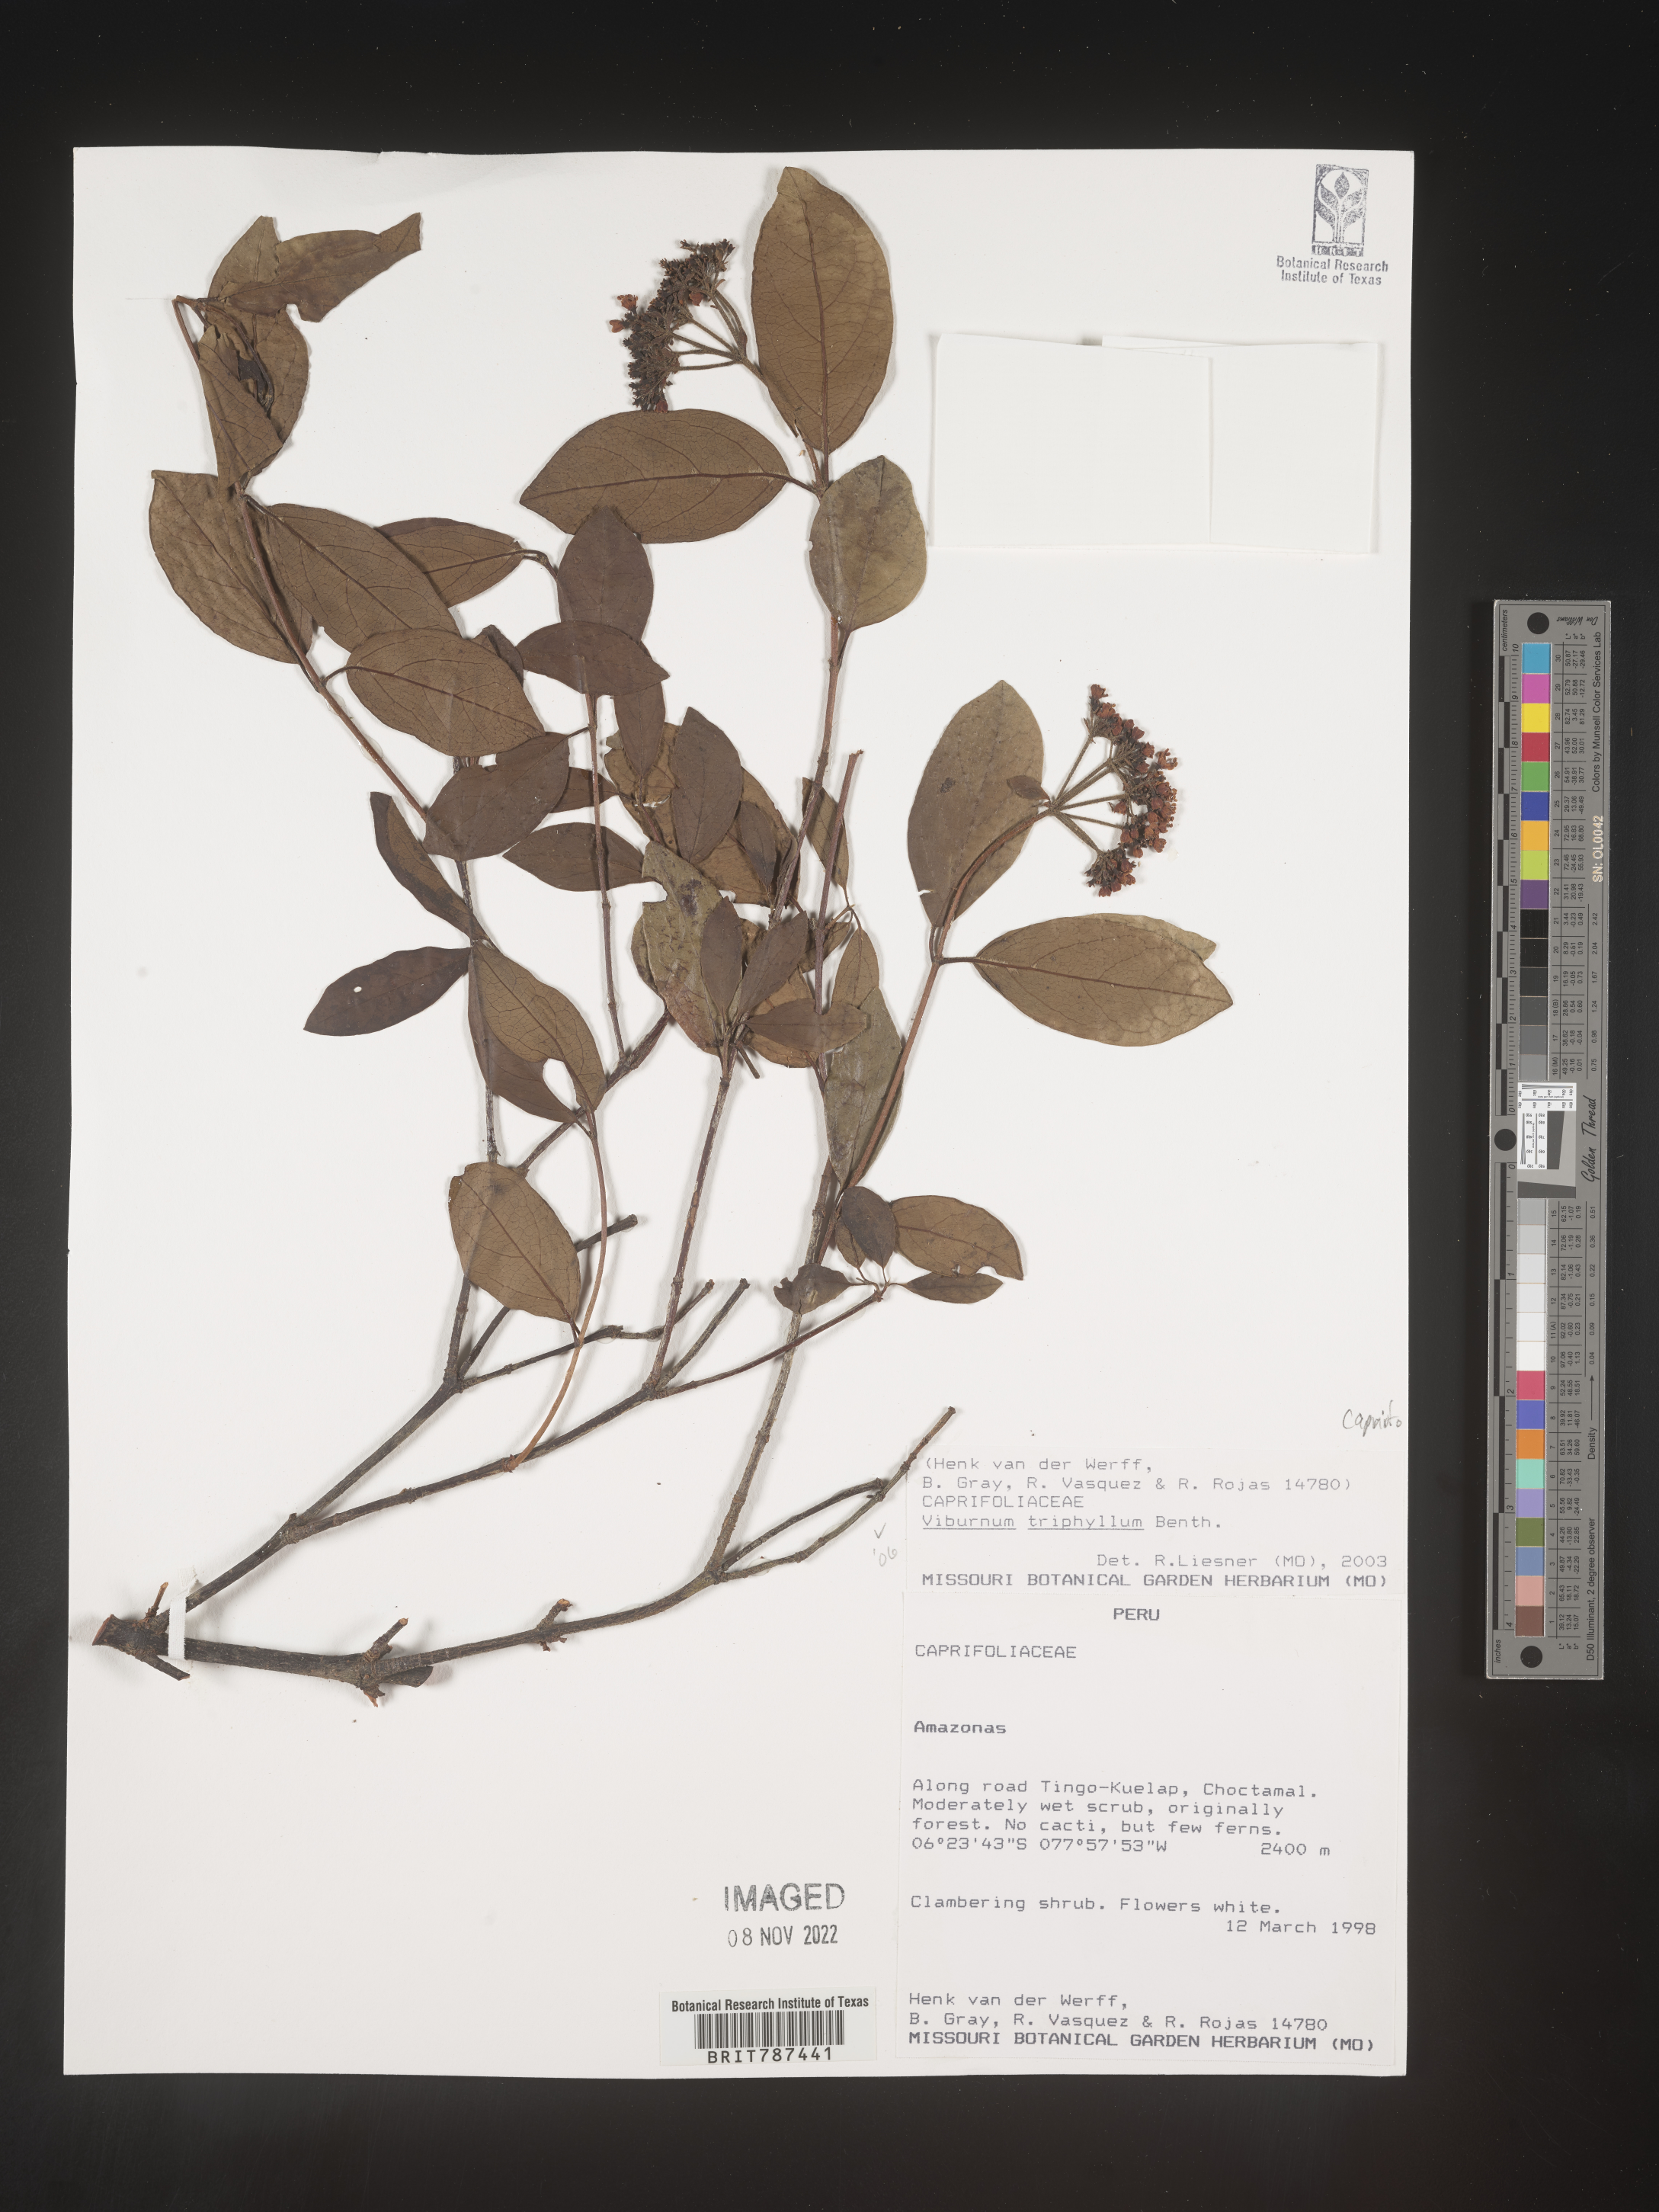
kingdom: Plantae
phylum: Tracheophyta
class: Magnoliopsida
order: Dipsacales
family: Viburnaceae
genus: Viburnum
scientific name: Viburnum
